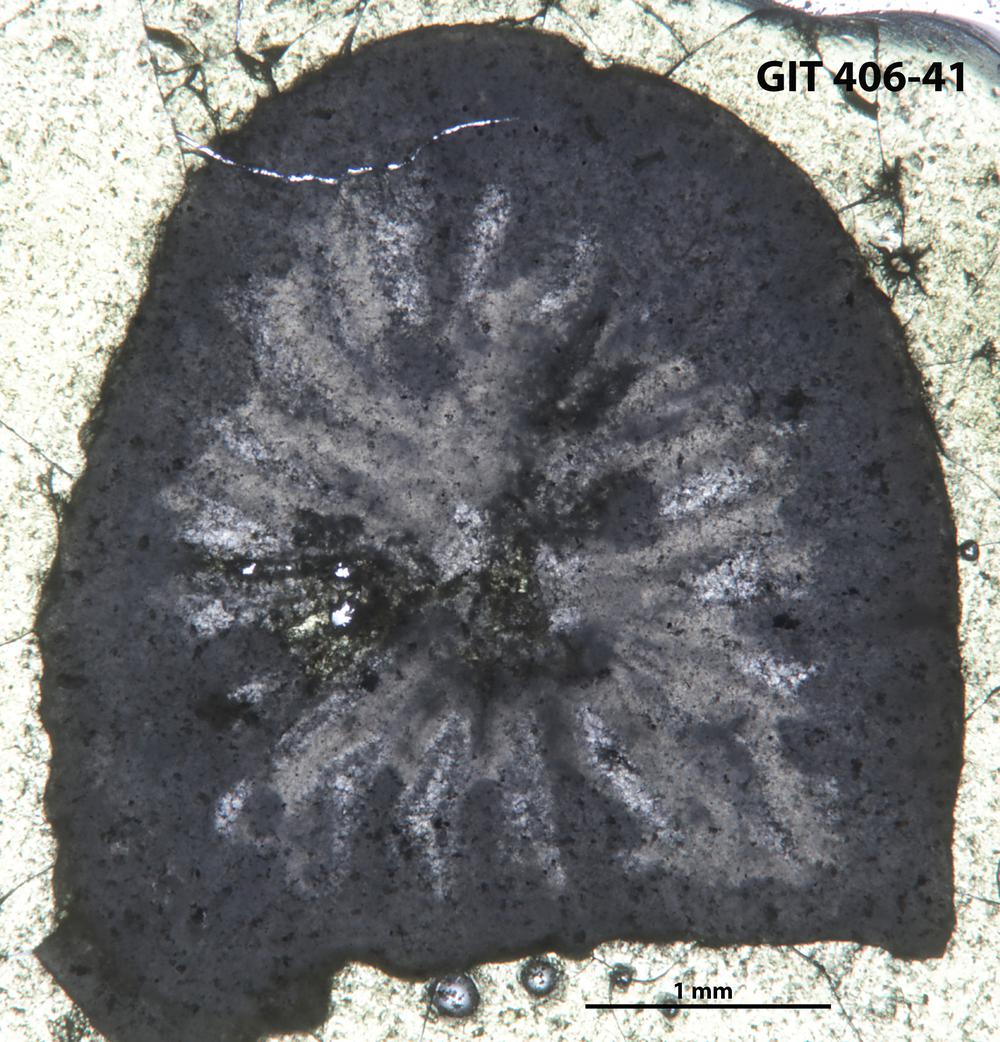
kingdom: Animalia
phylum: Cnidaria
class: Anthozoa
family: Streptelasmatidae
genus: Streptelasma
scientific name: Streptelasma
